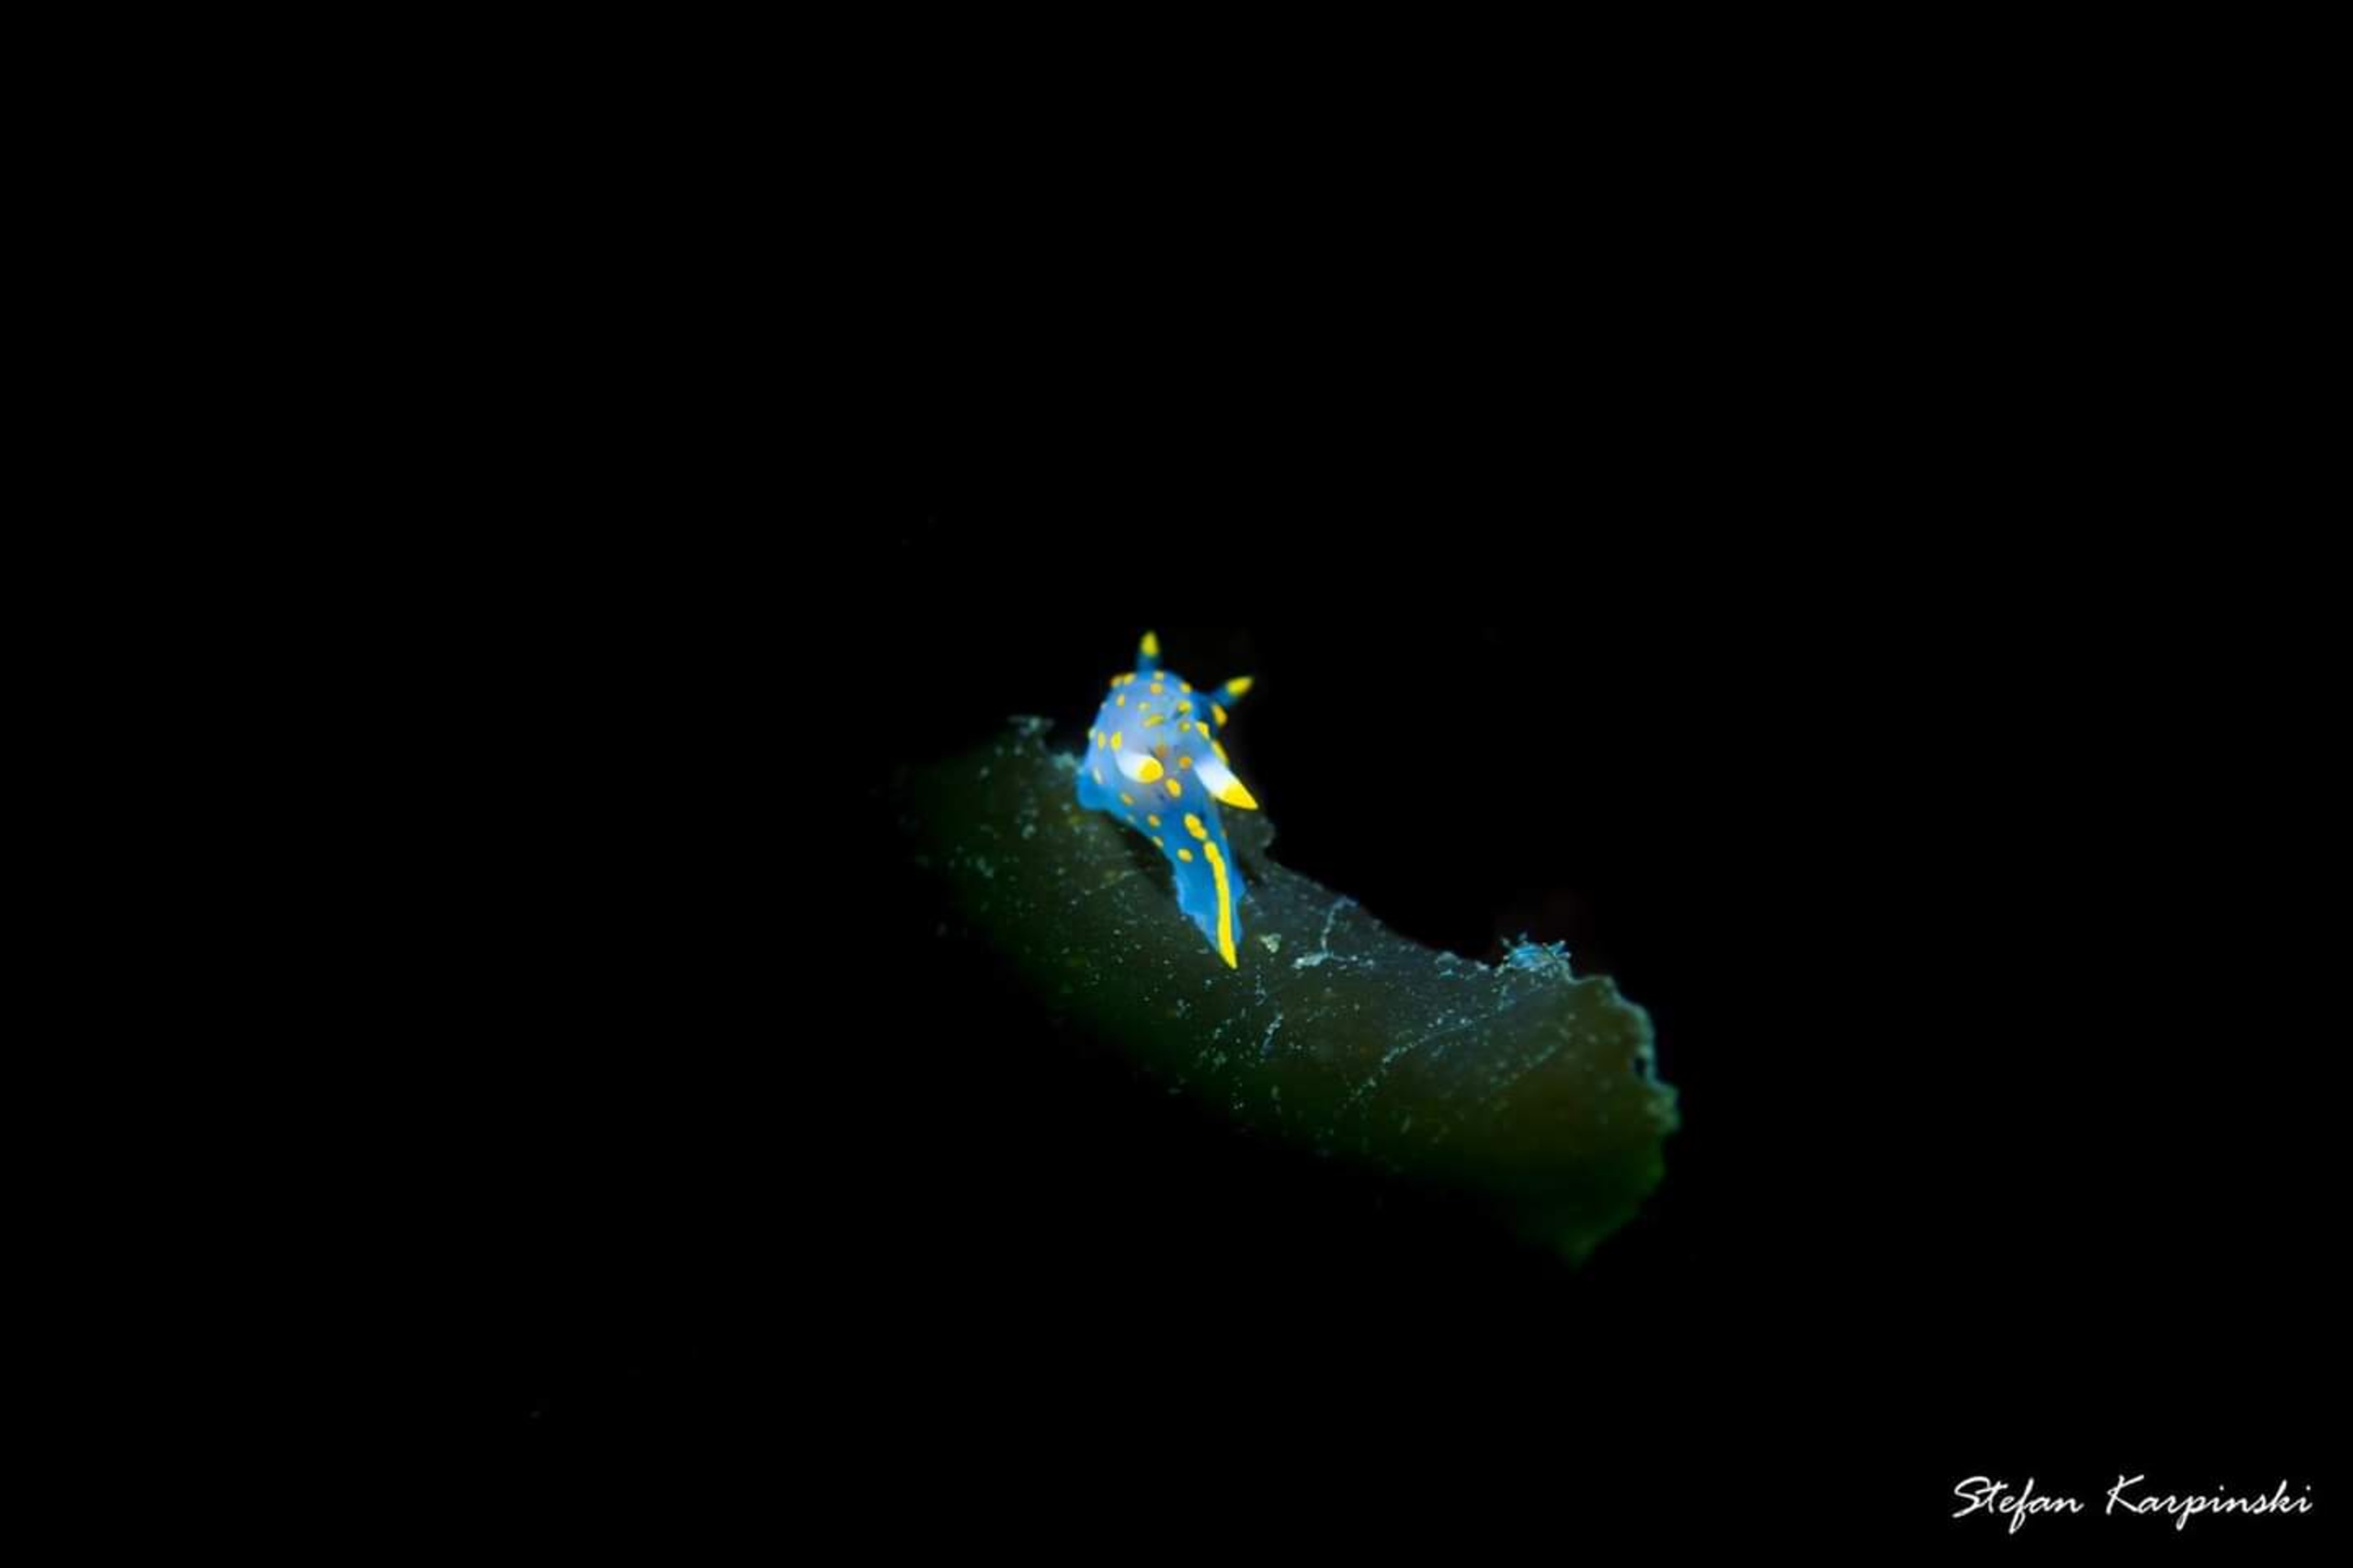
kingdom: Animalia
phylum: Mollusca
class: Gastropoda
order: Nudibranchia
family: Polyceridae
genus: Polycera
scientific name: Polycera quadrilineata
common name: Stribet nøgensnegl
